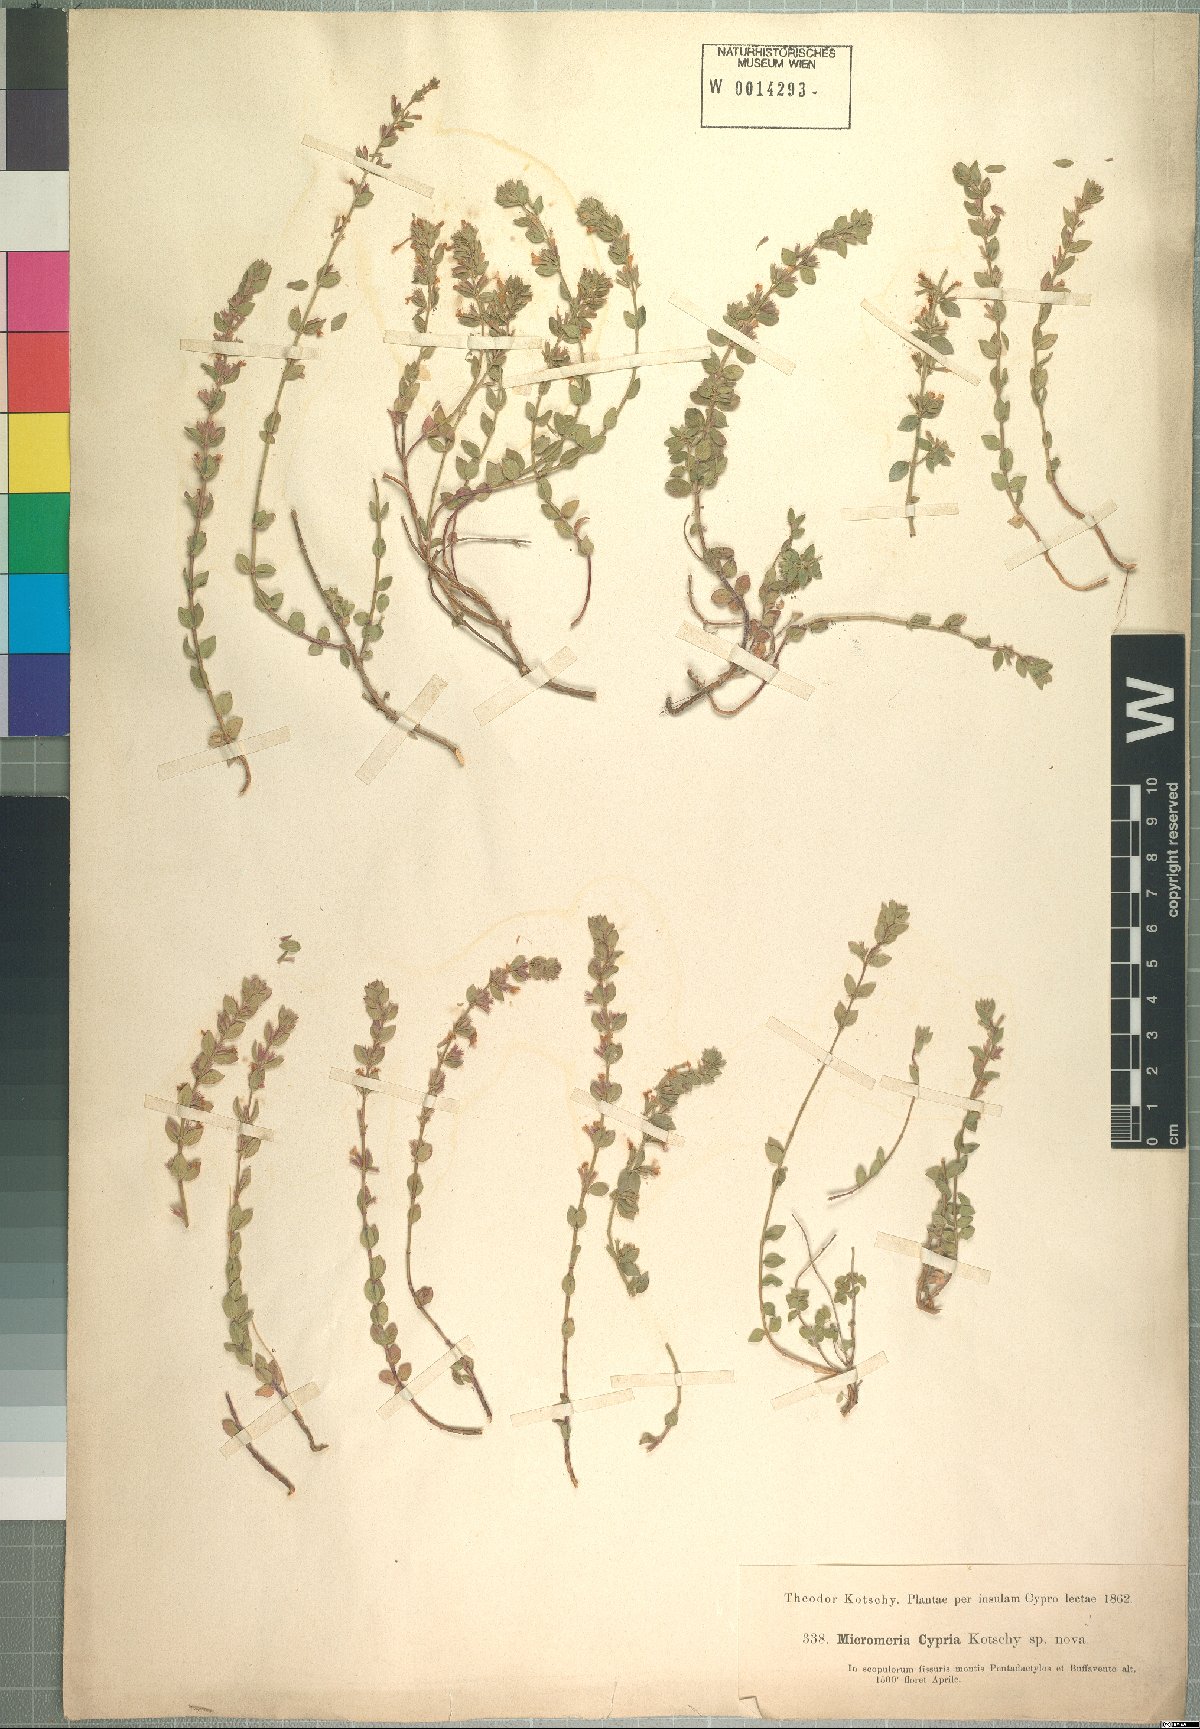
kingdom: Plantae
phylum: Tracheophyta
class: Magnoliopsida
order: Lamiales
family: Lamiaceae
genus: Micromeria
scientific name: Micromeria microphylla
